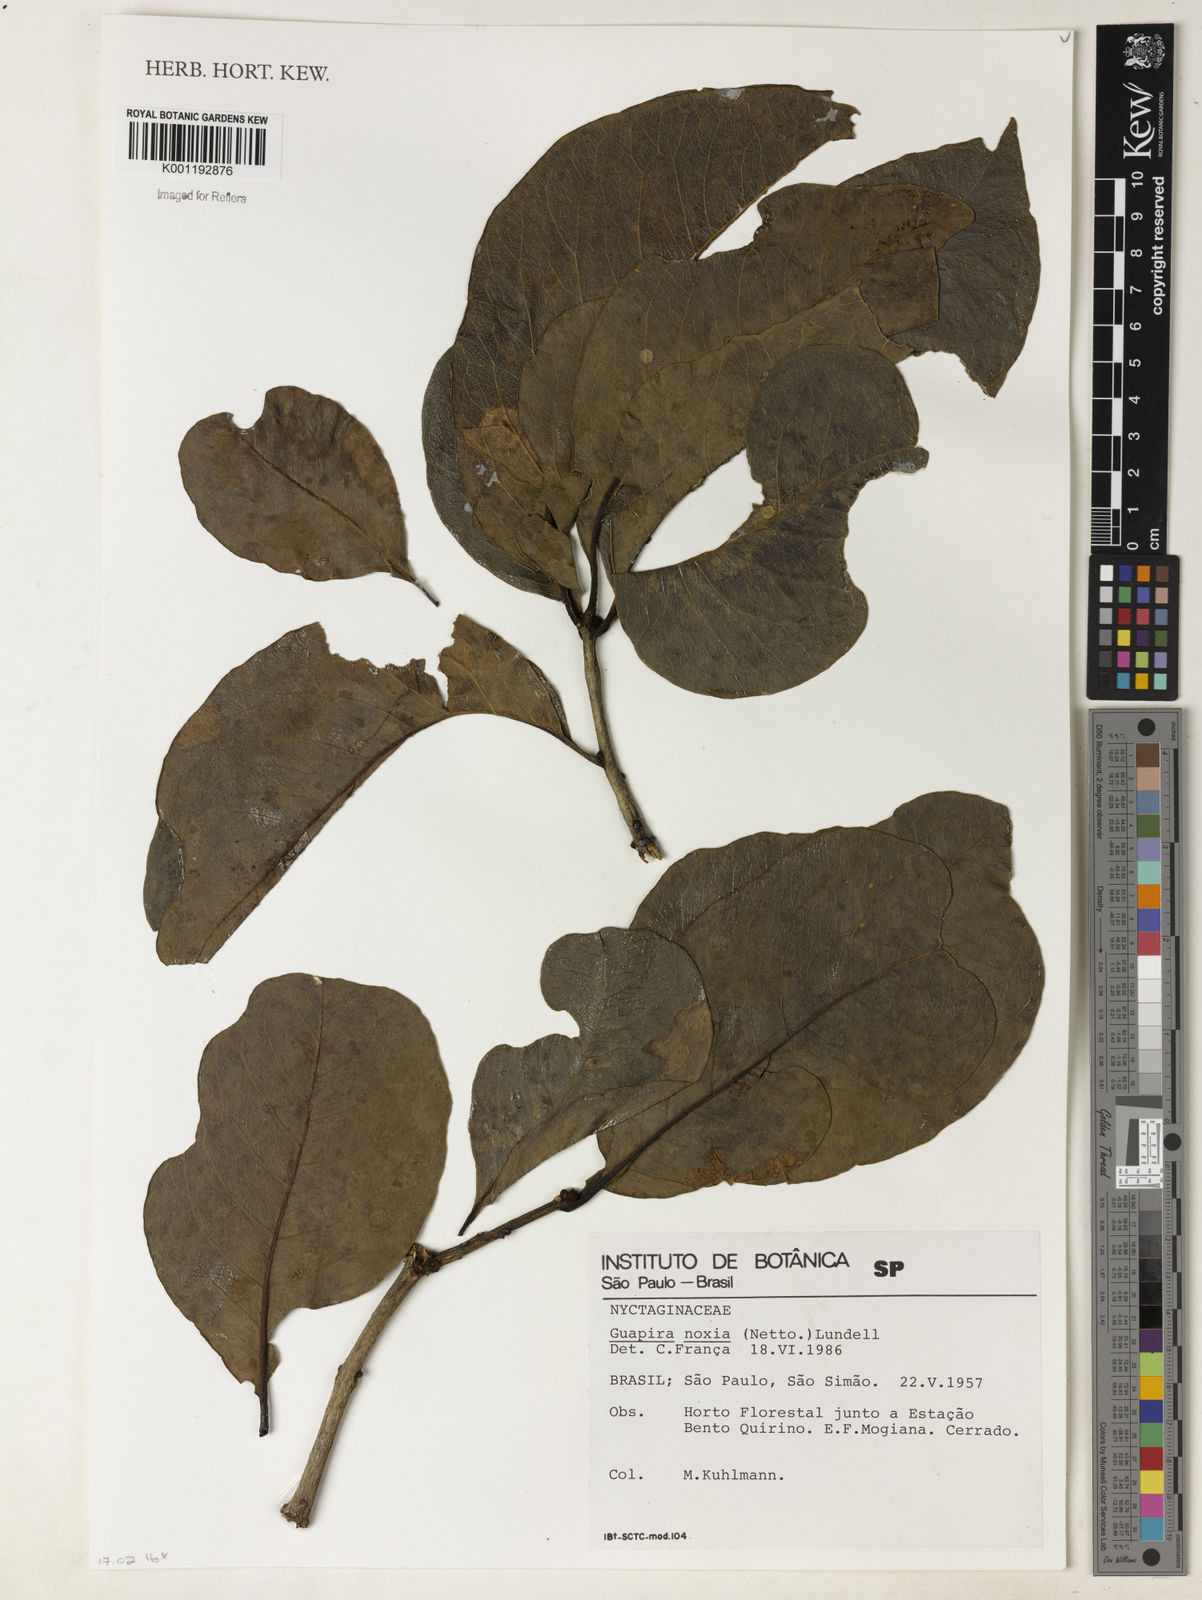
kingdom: Plantae
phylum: Tracheophyta
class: Magnoliopsida
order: Caryophyllales
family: Nyctaginaceae
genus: Guapira
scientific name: Guapira noxia
